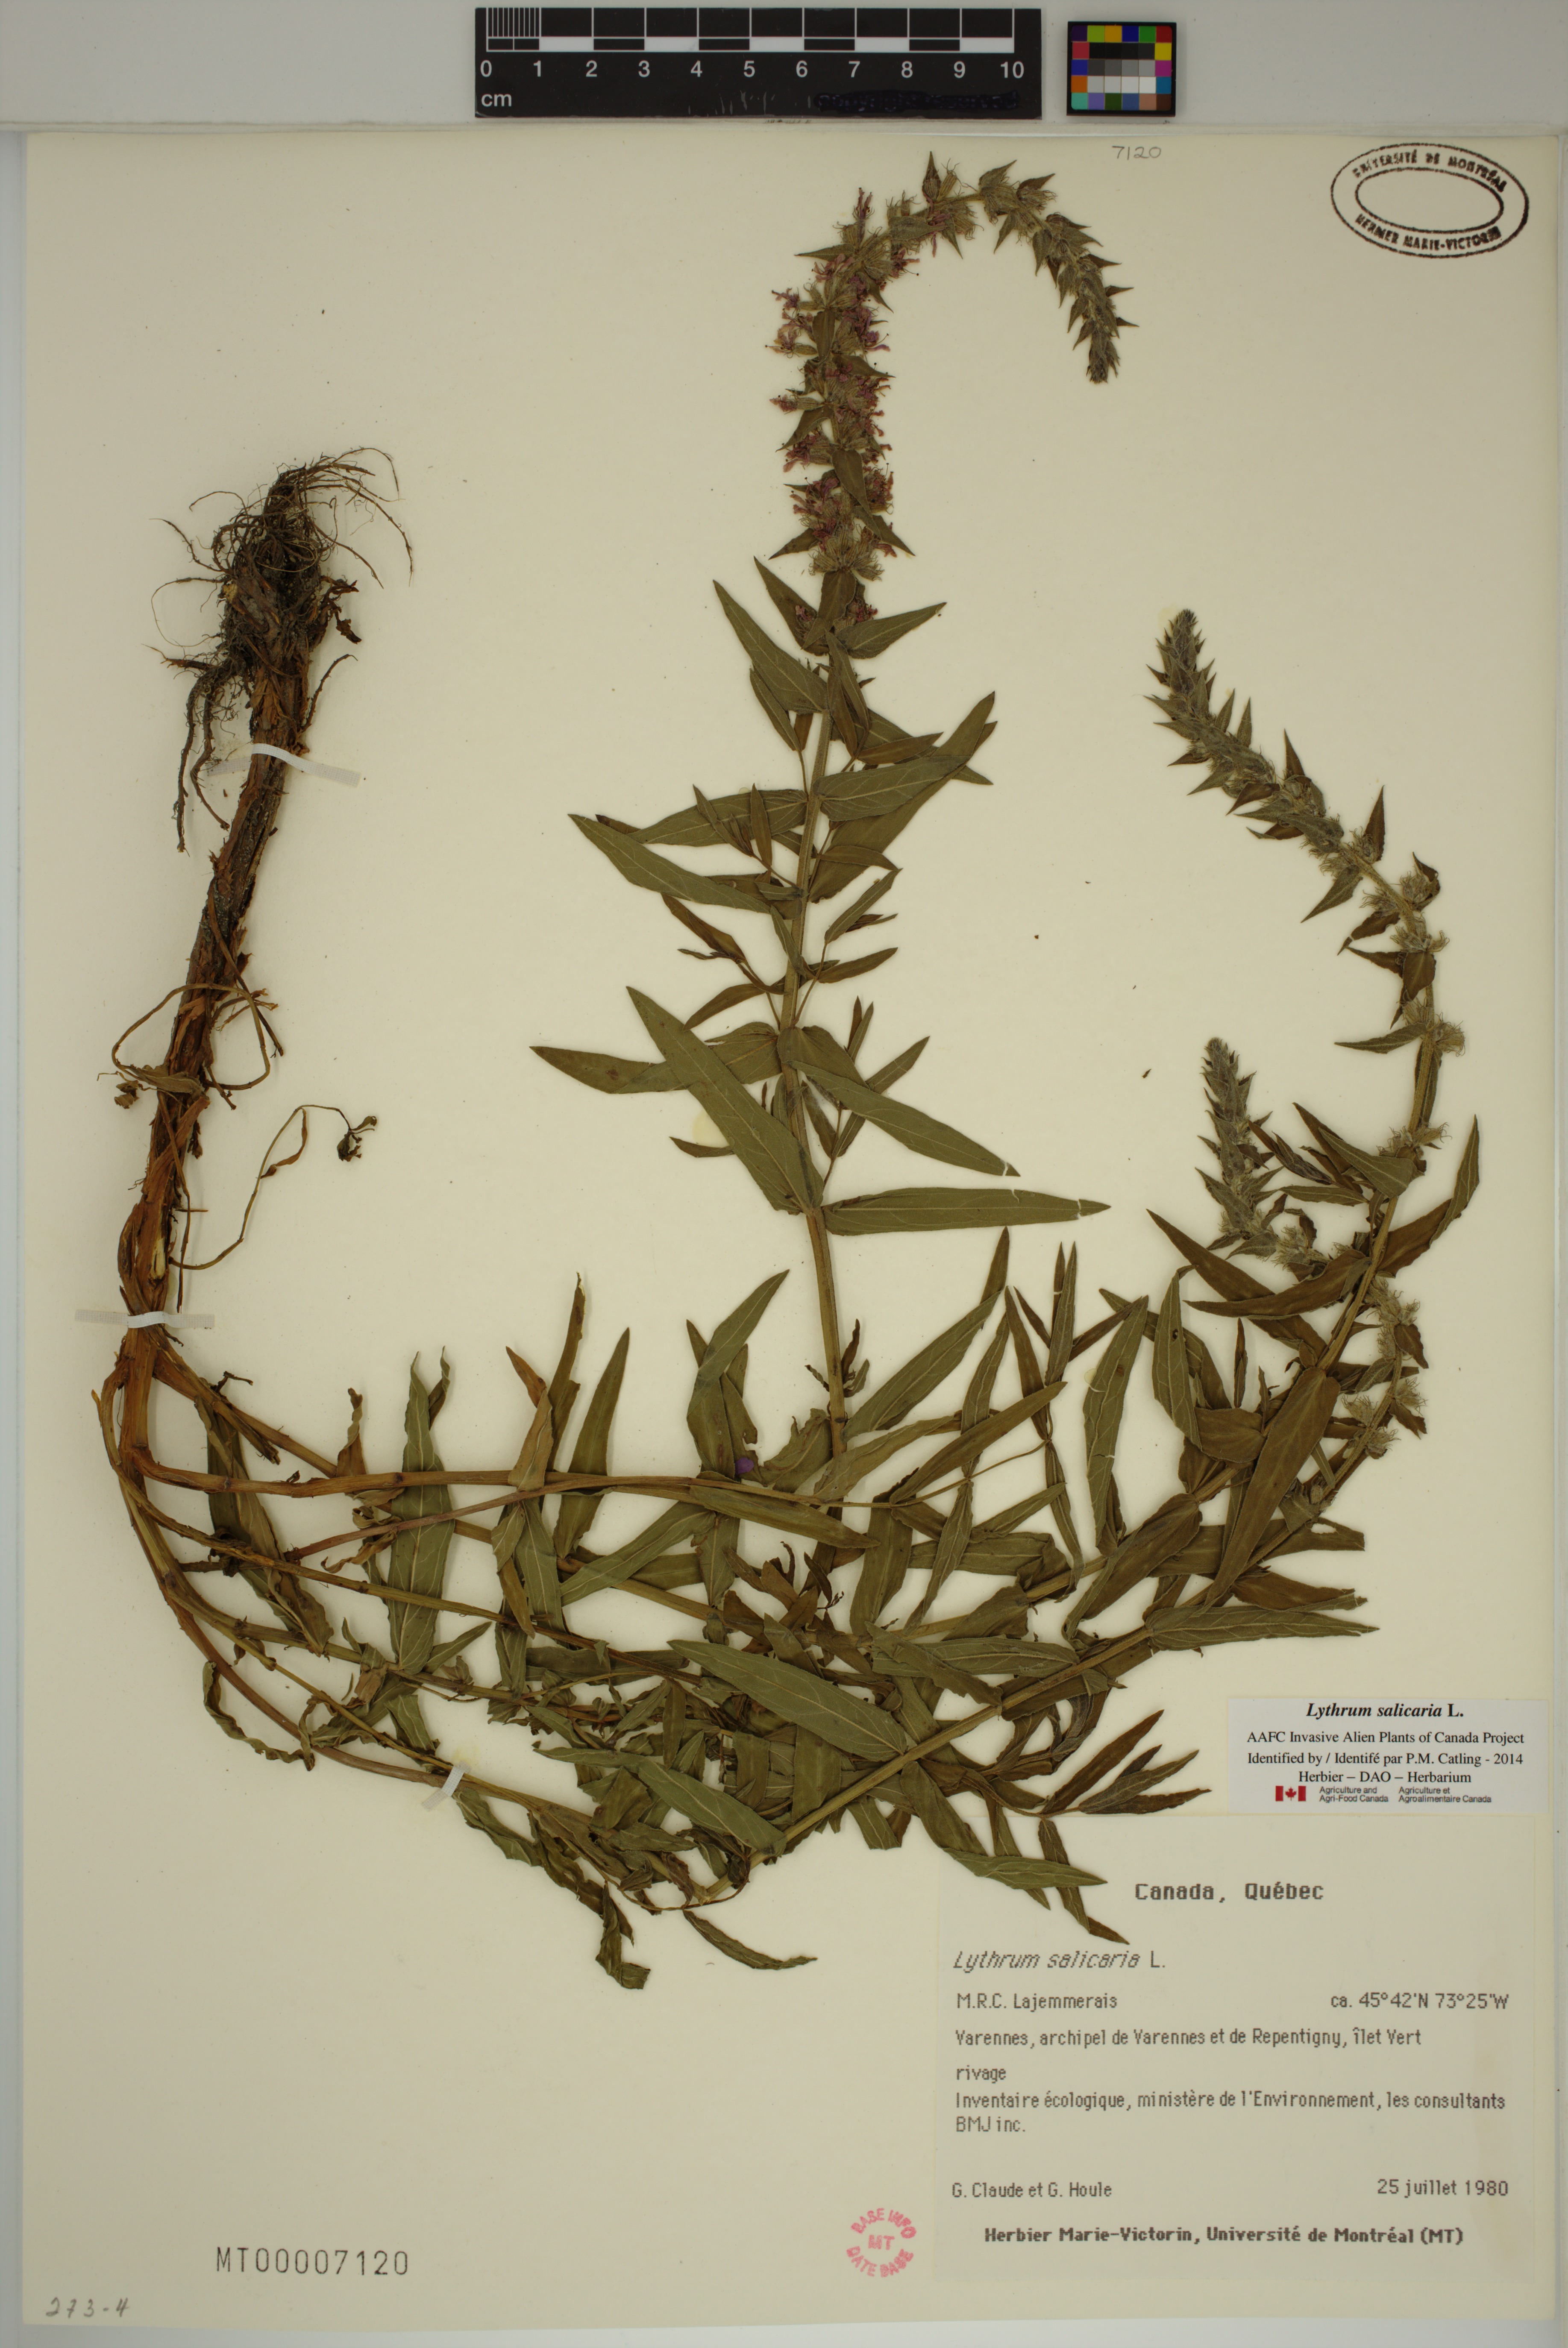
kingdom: Plantae
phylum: Tracheophyta
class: Magnoliopsida
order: Myrtales
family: Lythraceae
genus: Lythrum
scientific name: Lythrum salicaria
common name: Purple loosestrife
